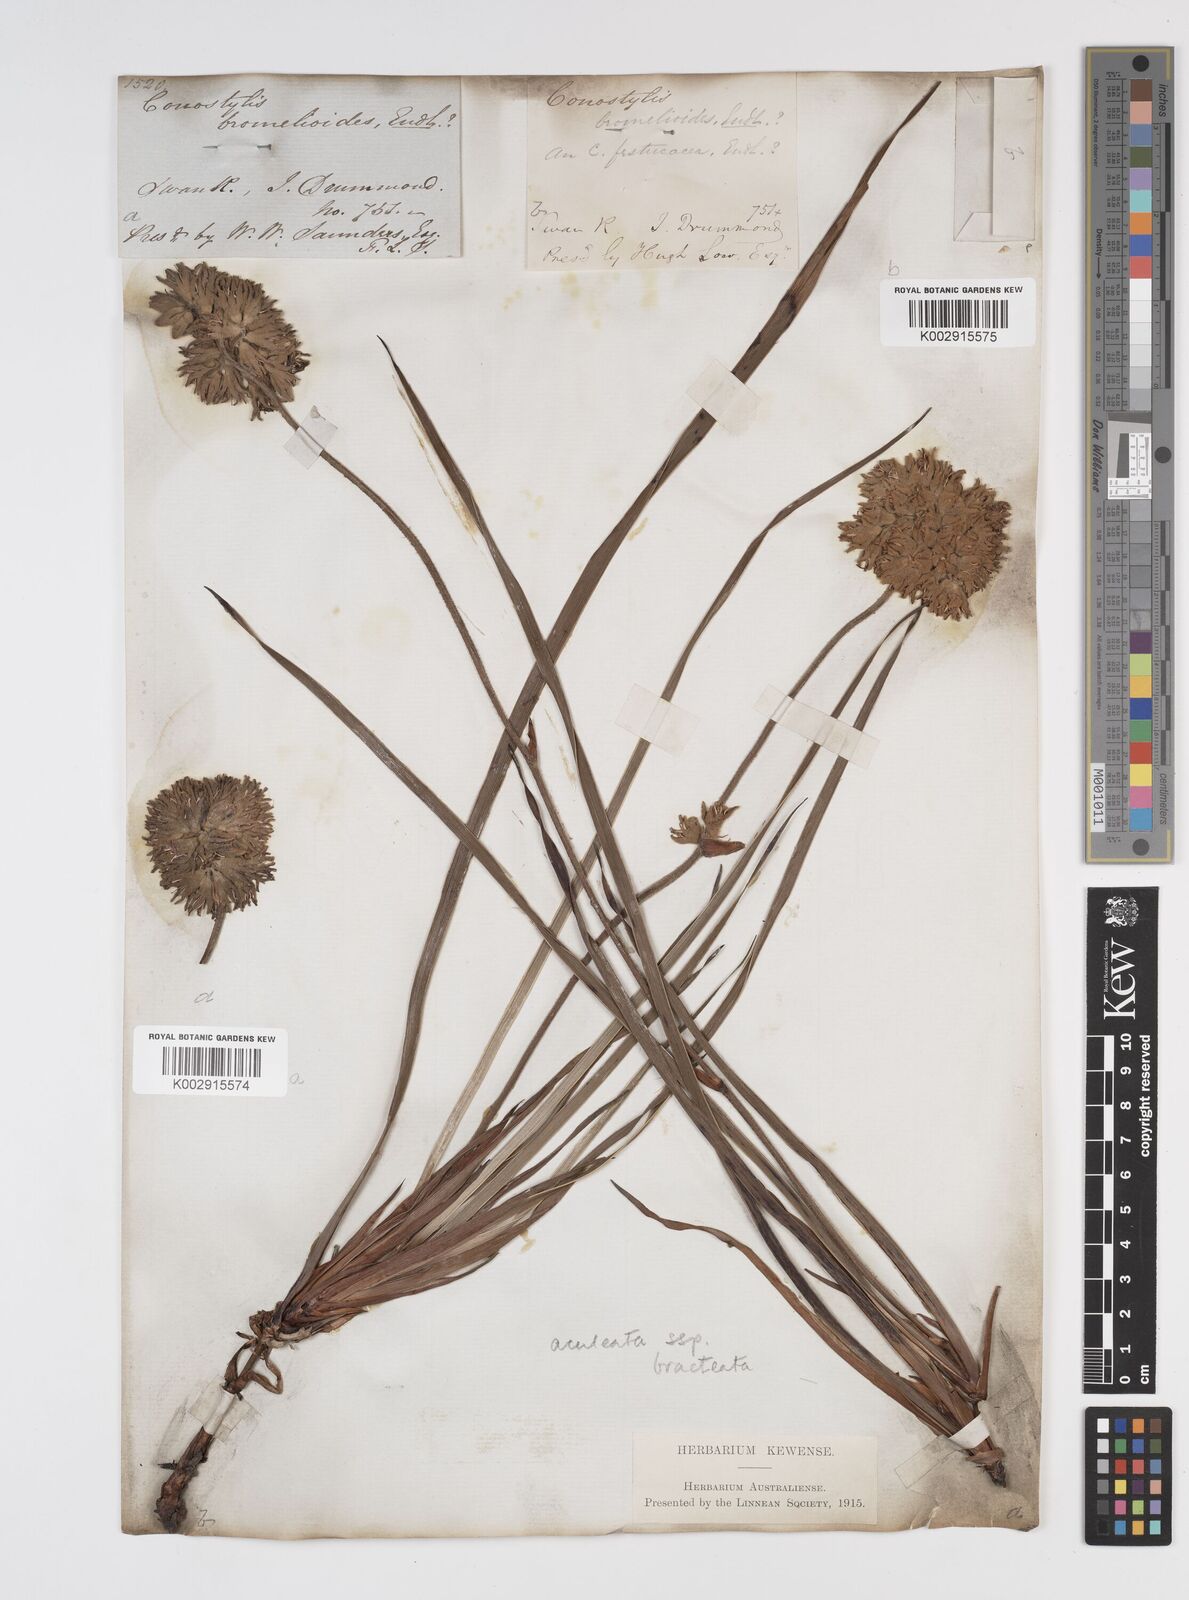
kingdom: Plantae
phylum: Tracheophyta
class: Liliopsida
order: Commelinales
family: Haemodoraceae
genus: Conostylis
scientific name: Conostylis bracteata
